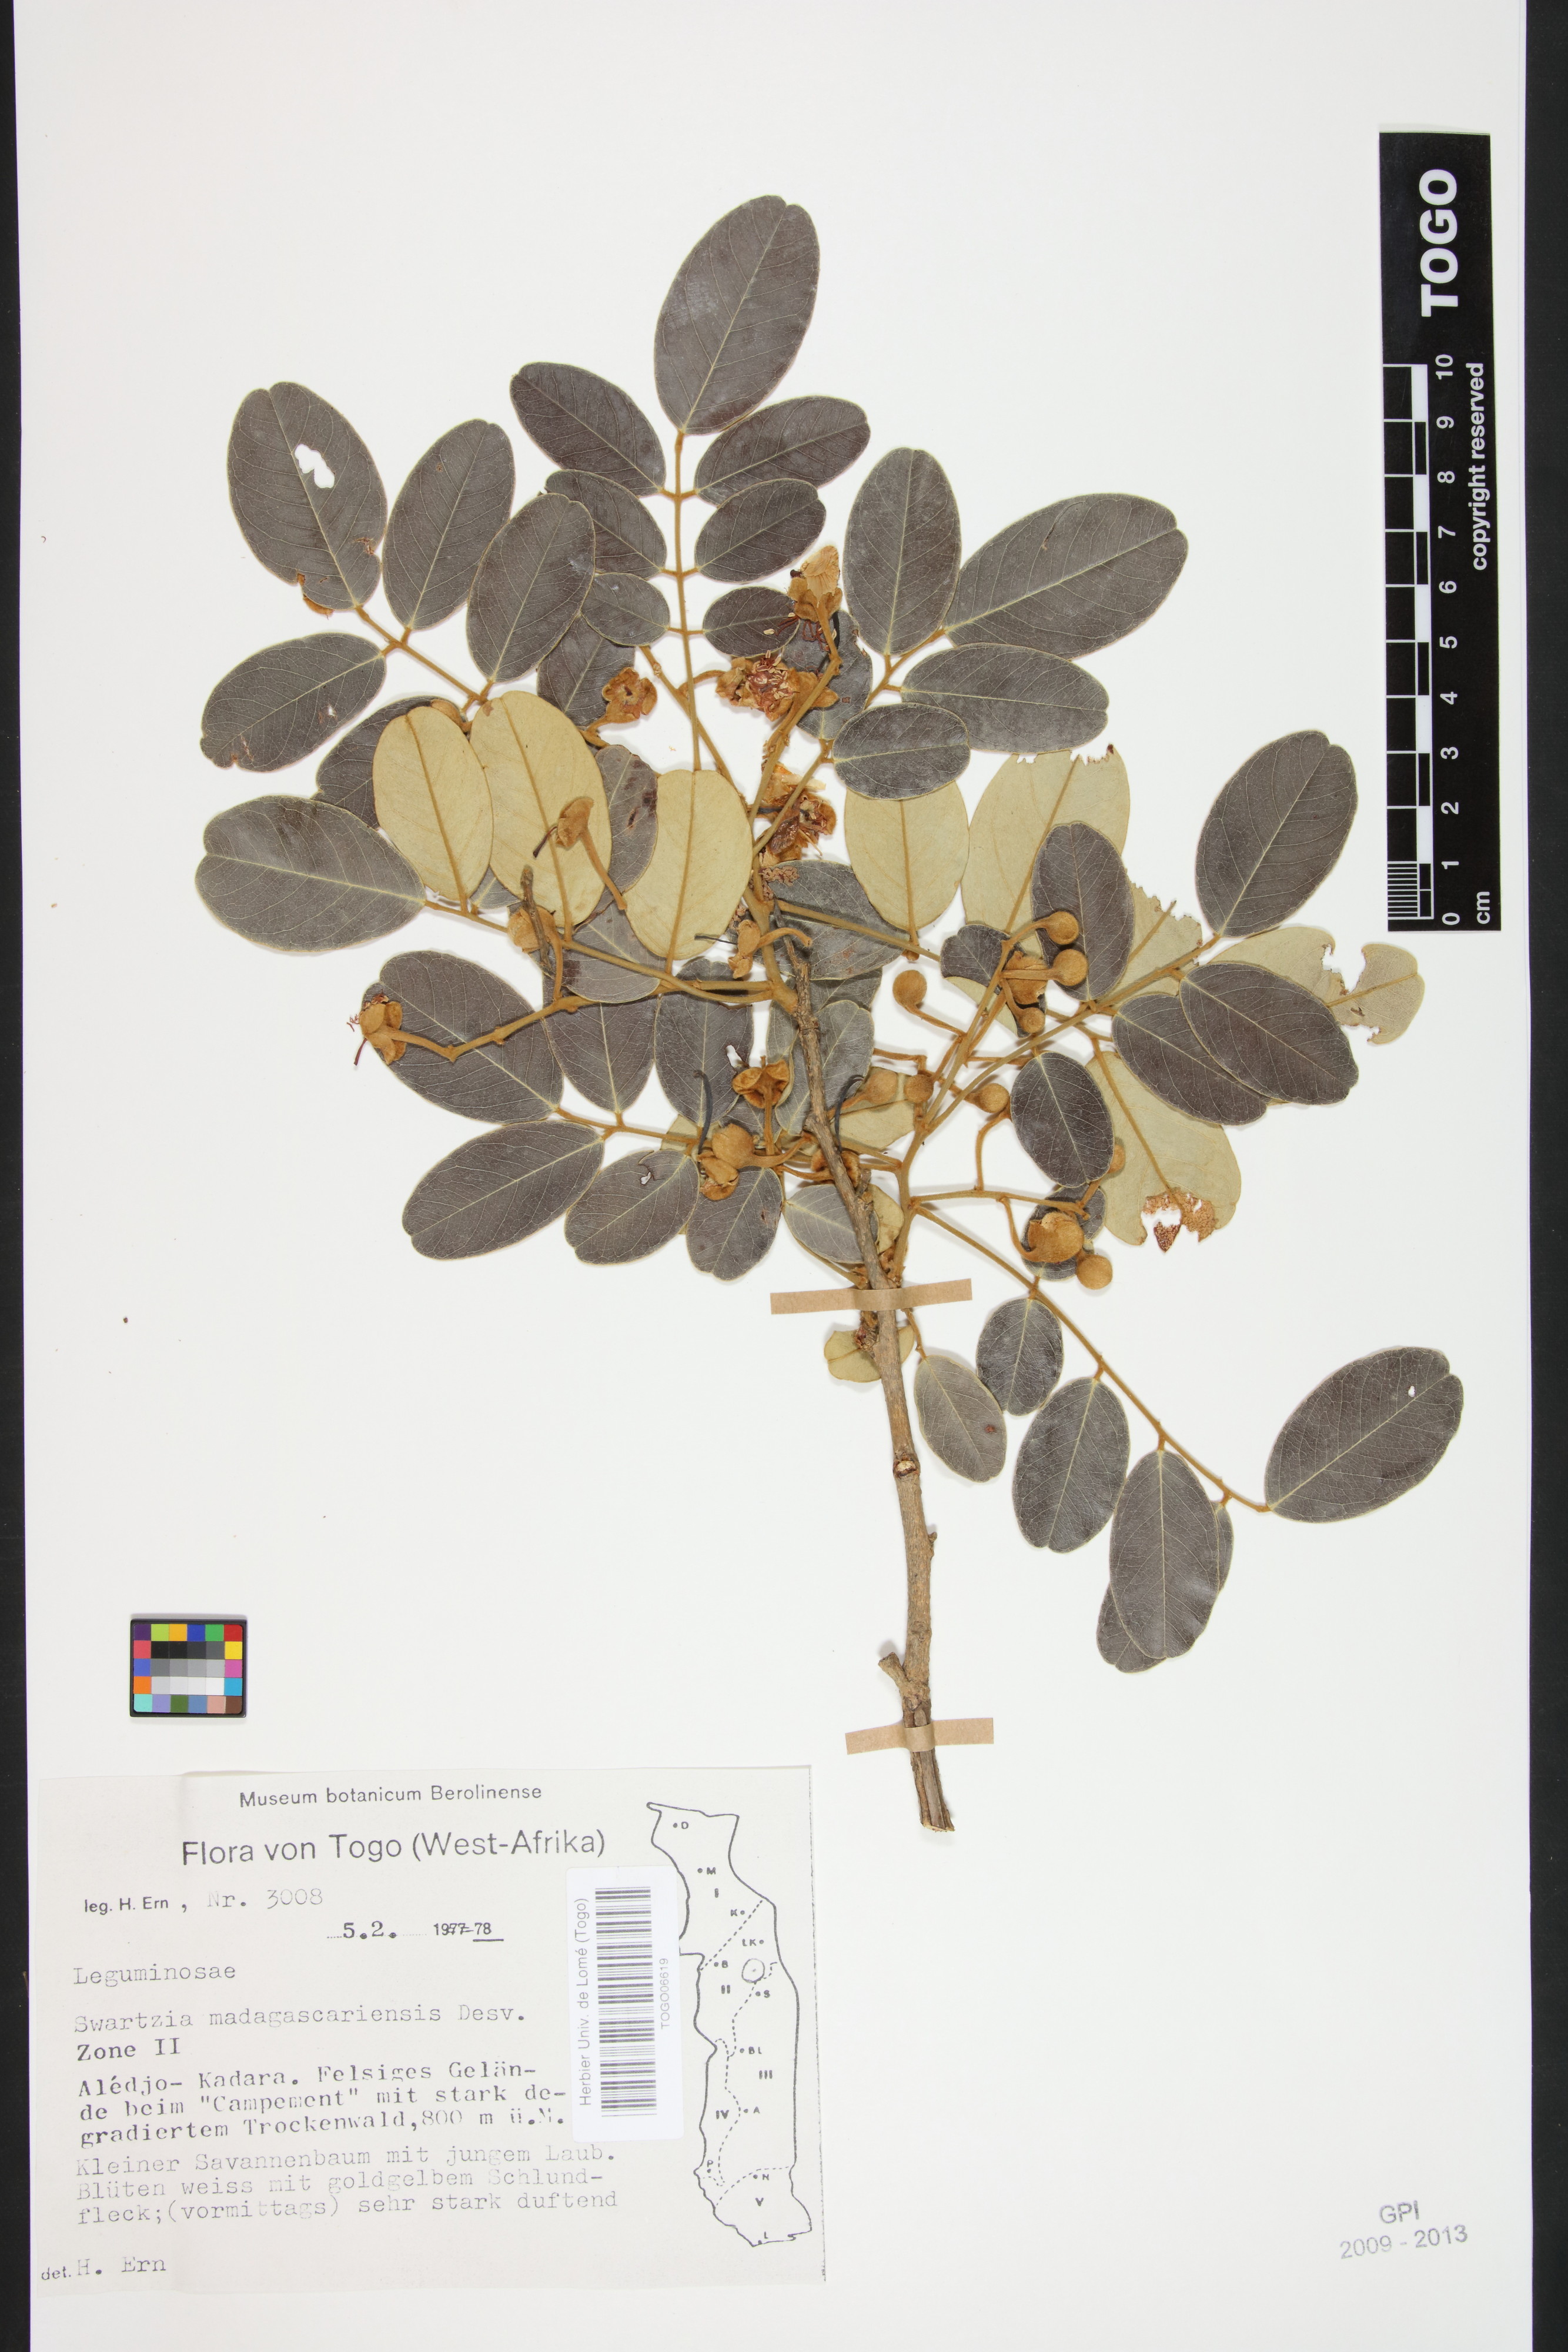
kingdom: Plantae
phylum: Tracheophyta
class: Magnoliopsida
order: Fabales
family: Fabaceae
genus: Bobgunnia
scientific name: Bobgunnia madagascariensis
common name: Snake bean plant
